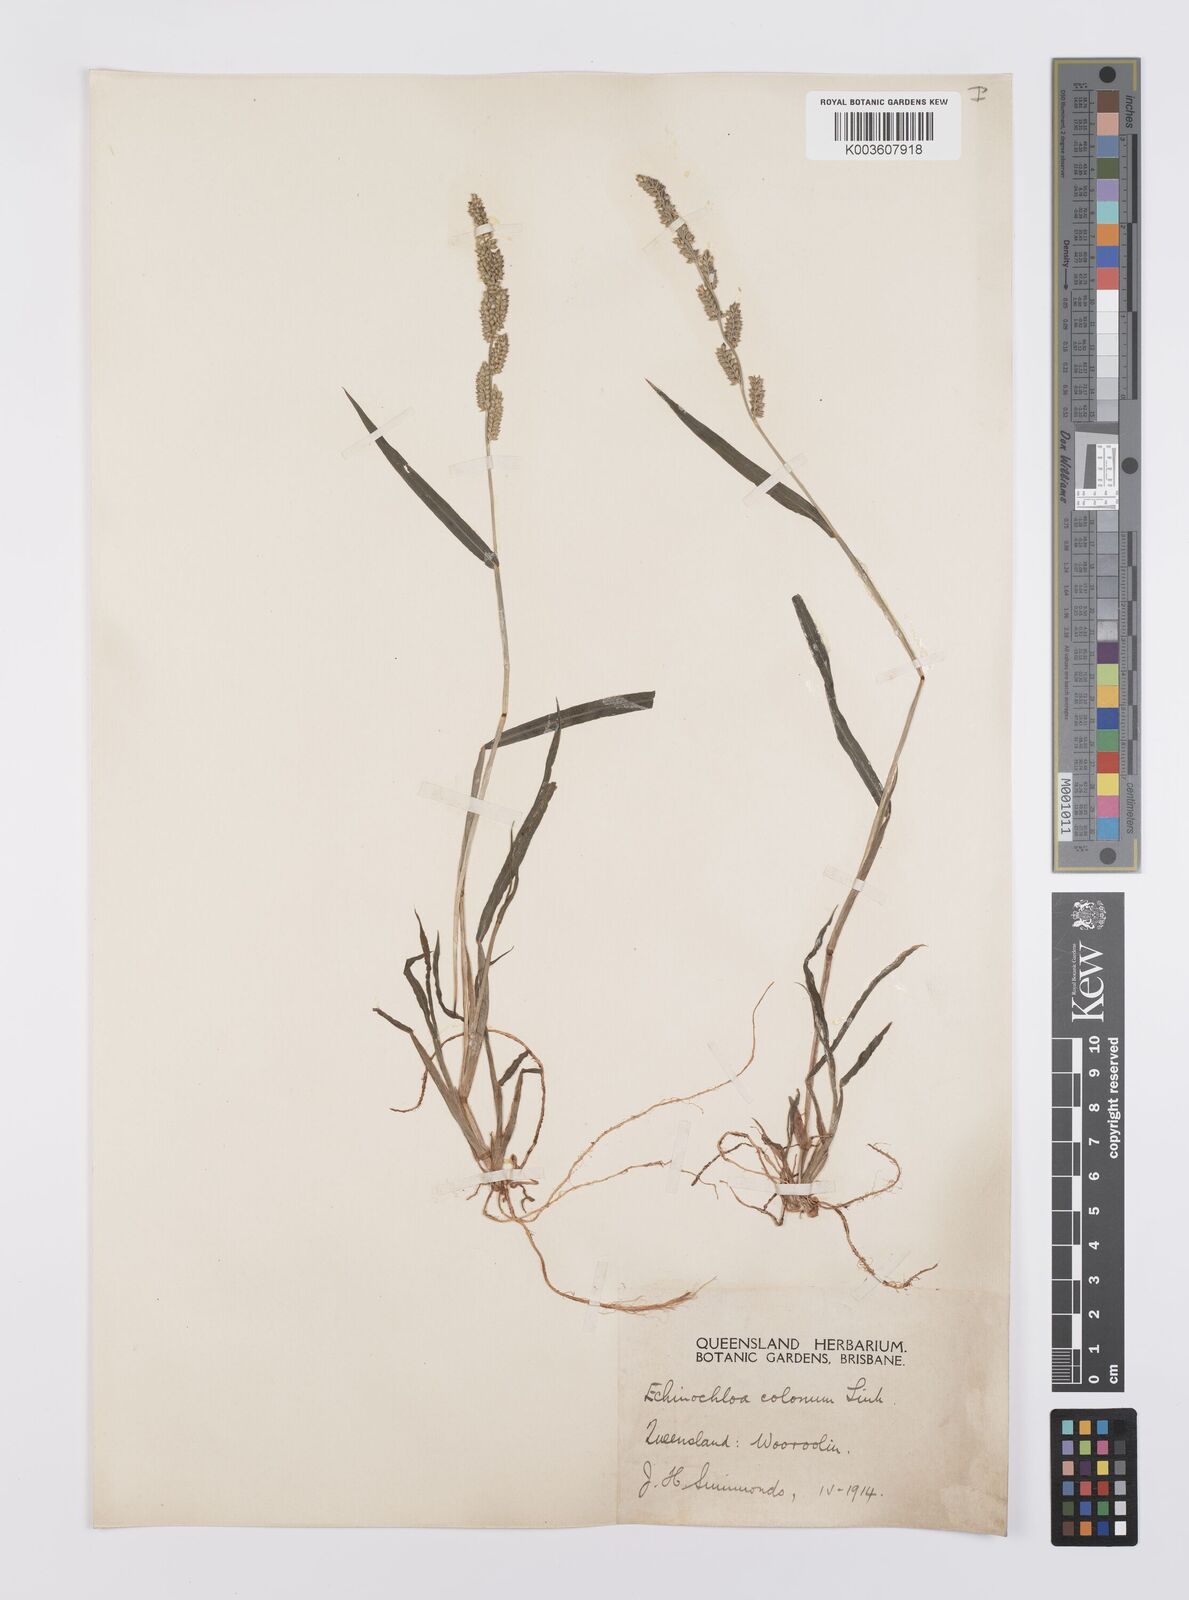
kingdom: Plantae
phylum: Tracheophyta
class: Liliopsida
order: Poales
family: Poaceae
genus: Echinochloa
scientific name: Echinochloa colonum
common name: Jungle rice
